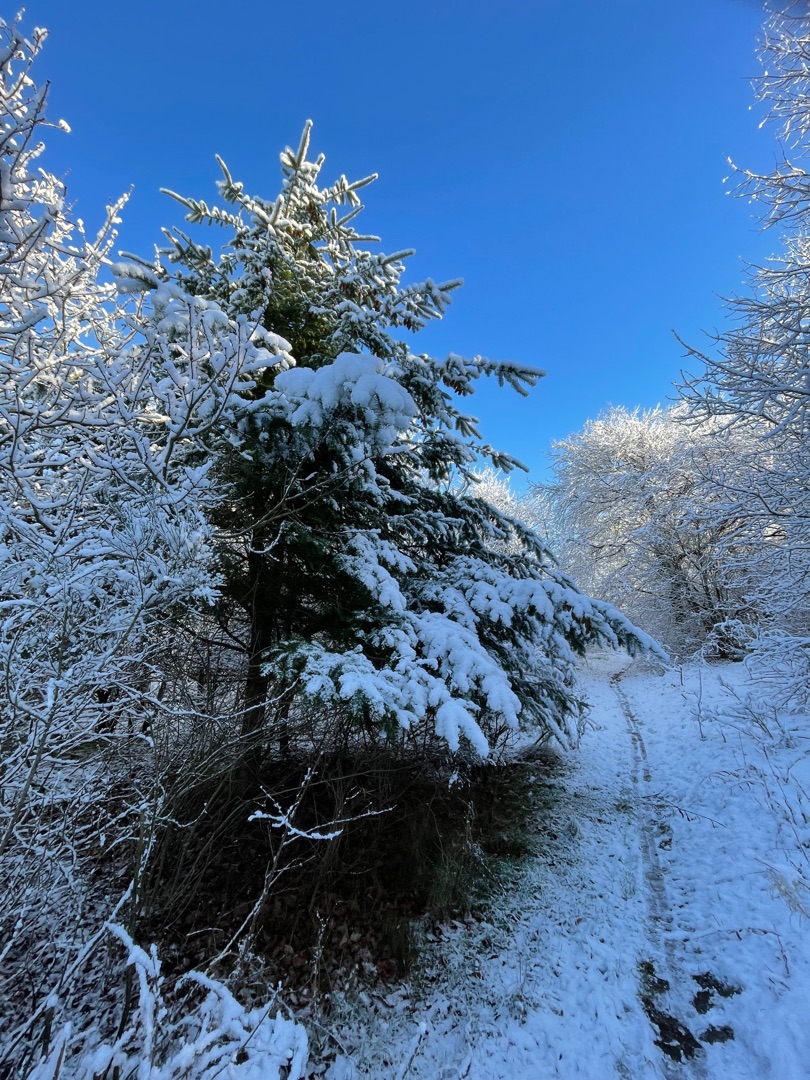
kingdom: Plantae
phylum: Tracheophyta
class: Pinopsida
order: Pinales
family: Pinaceae
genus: Pseudotsuga
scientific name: Pseudotsuga menziesii
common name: Grøn douglasgran
